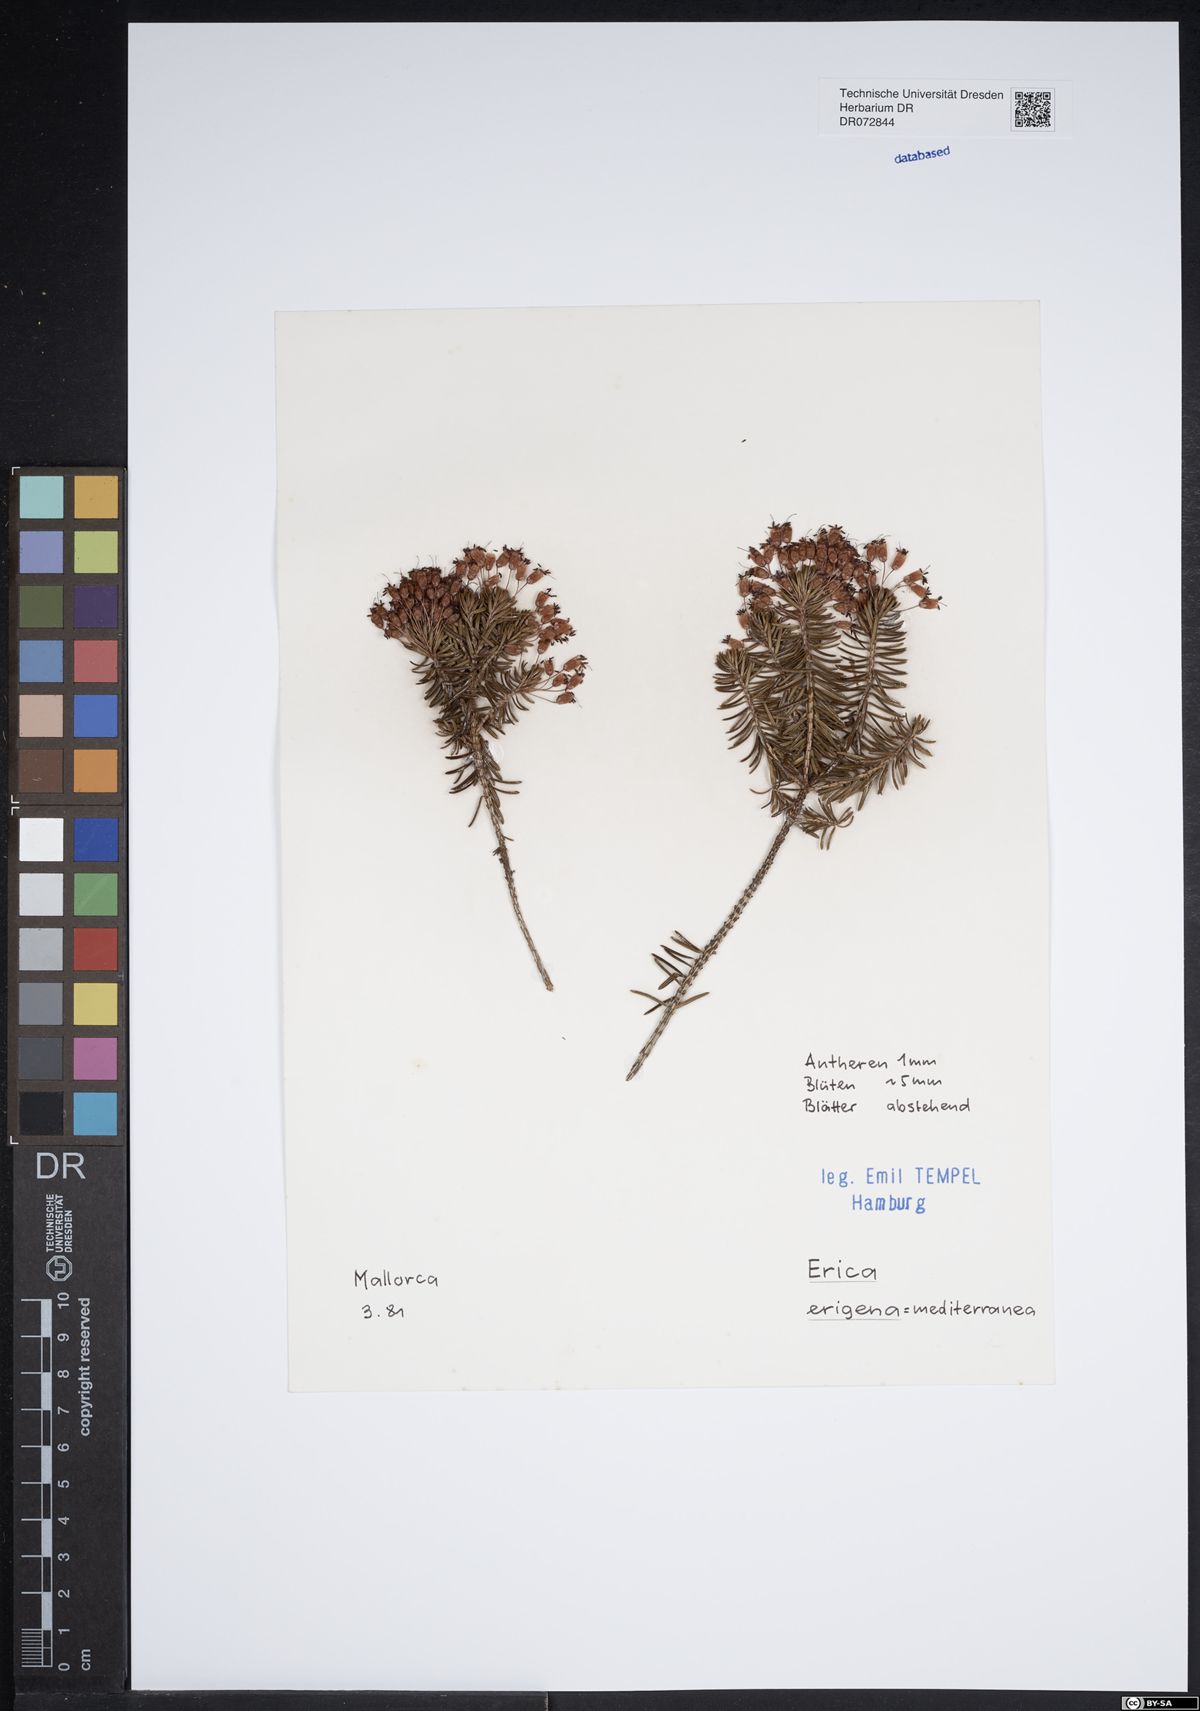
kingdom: Plantae
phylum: Tracheophyta
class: Magnoliopsida
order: Ericales
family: Ericaceae
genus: Erica
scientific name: Erica erigena
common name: Irish heath
